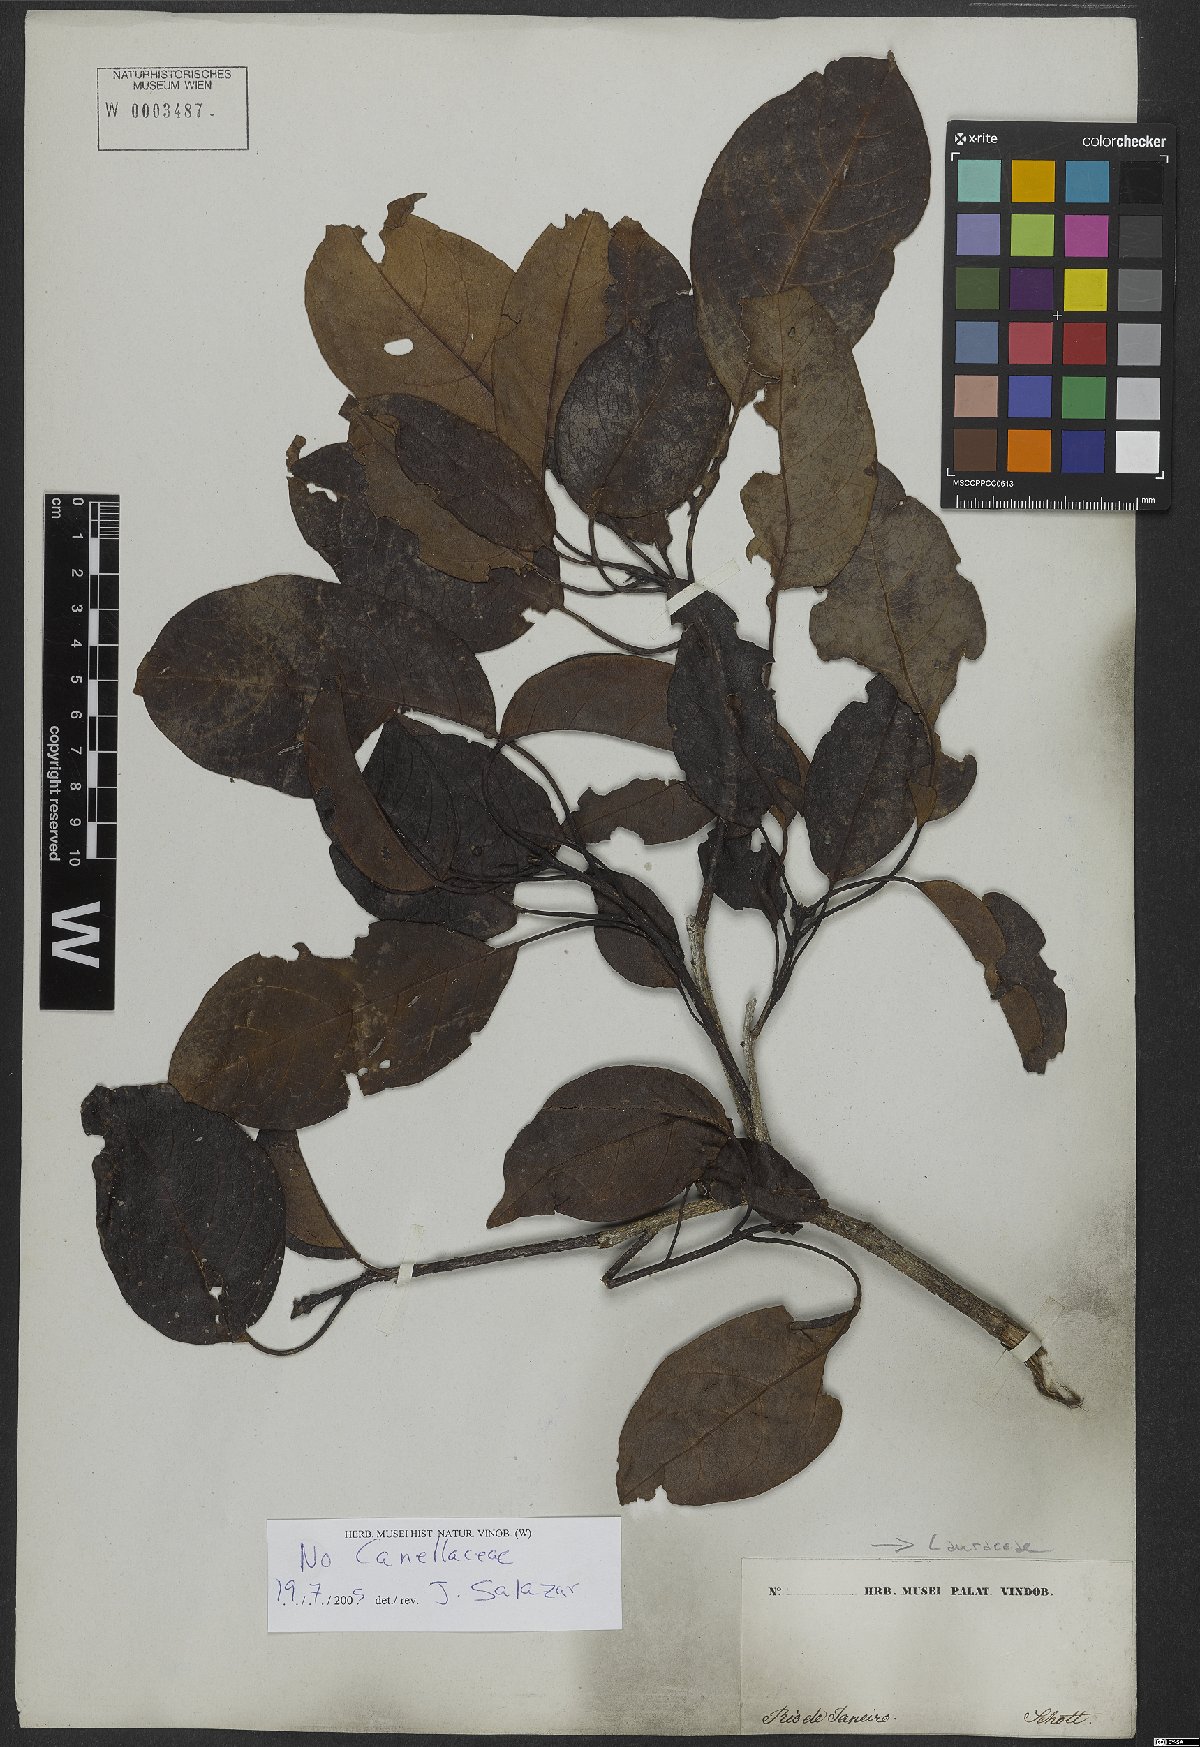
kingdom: Plantae
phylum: Tracheophyta
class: Magnoliopsida
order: Laurales
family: Lauraceae
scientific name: Lauraceae
